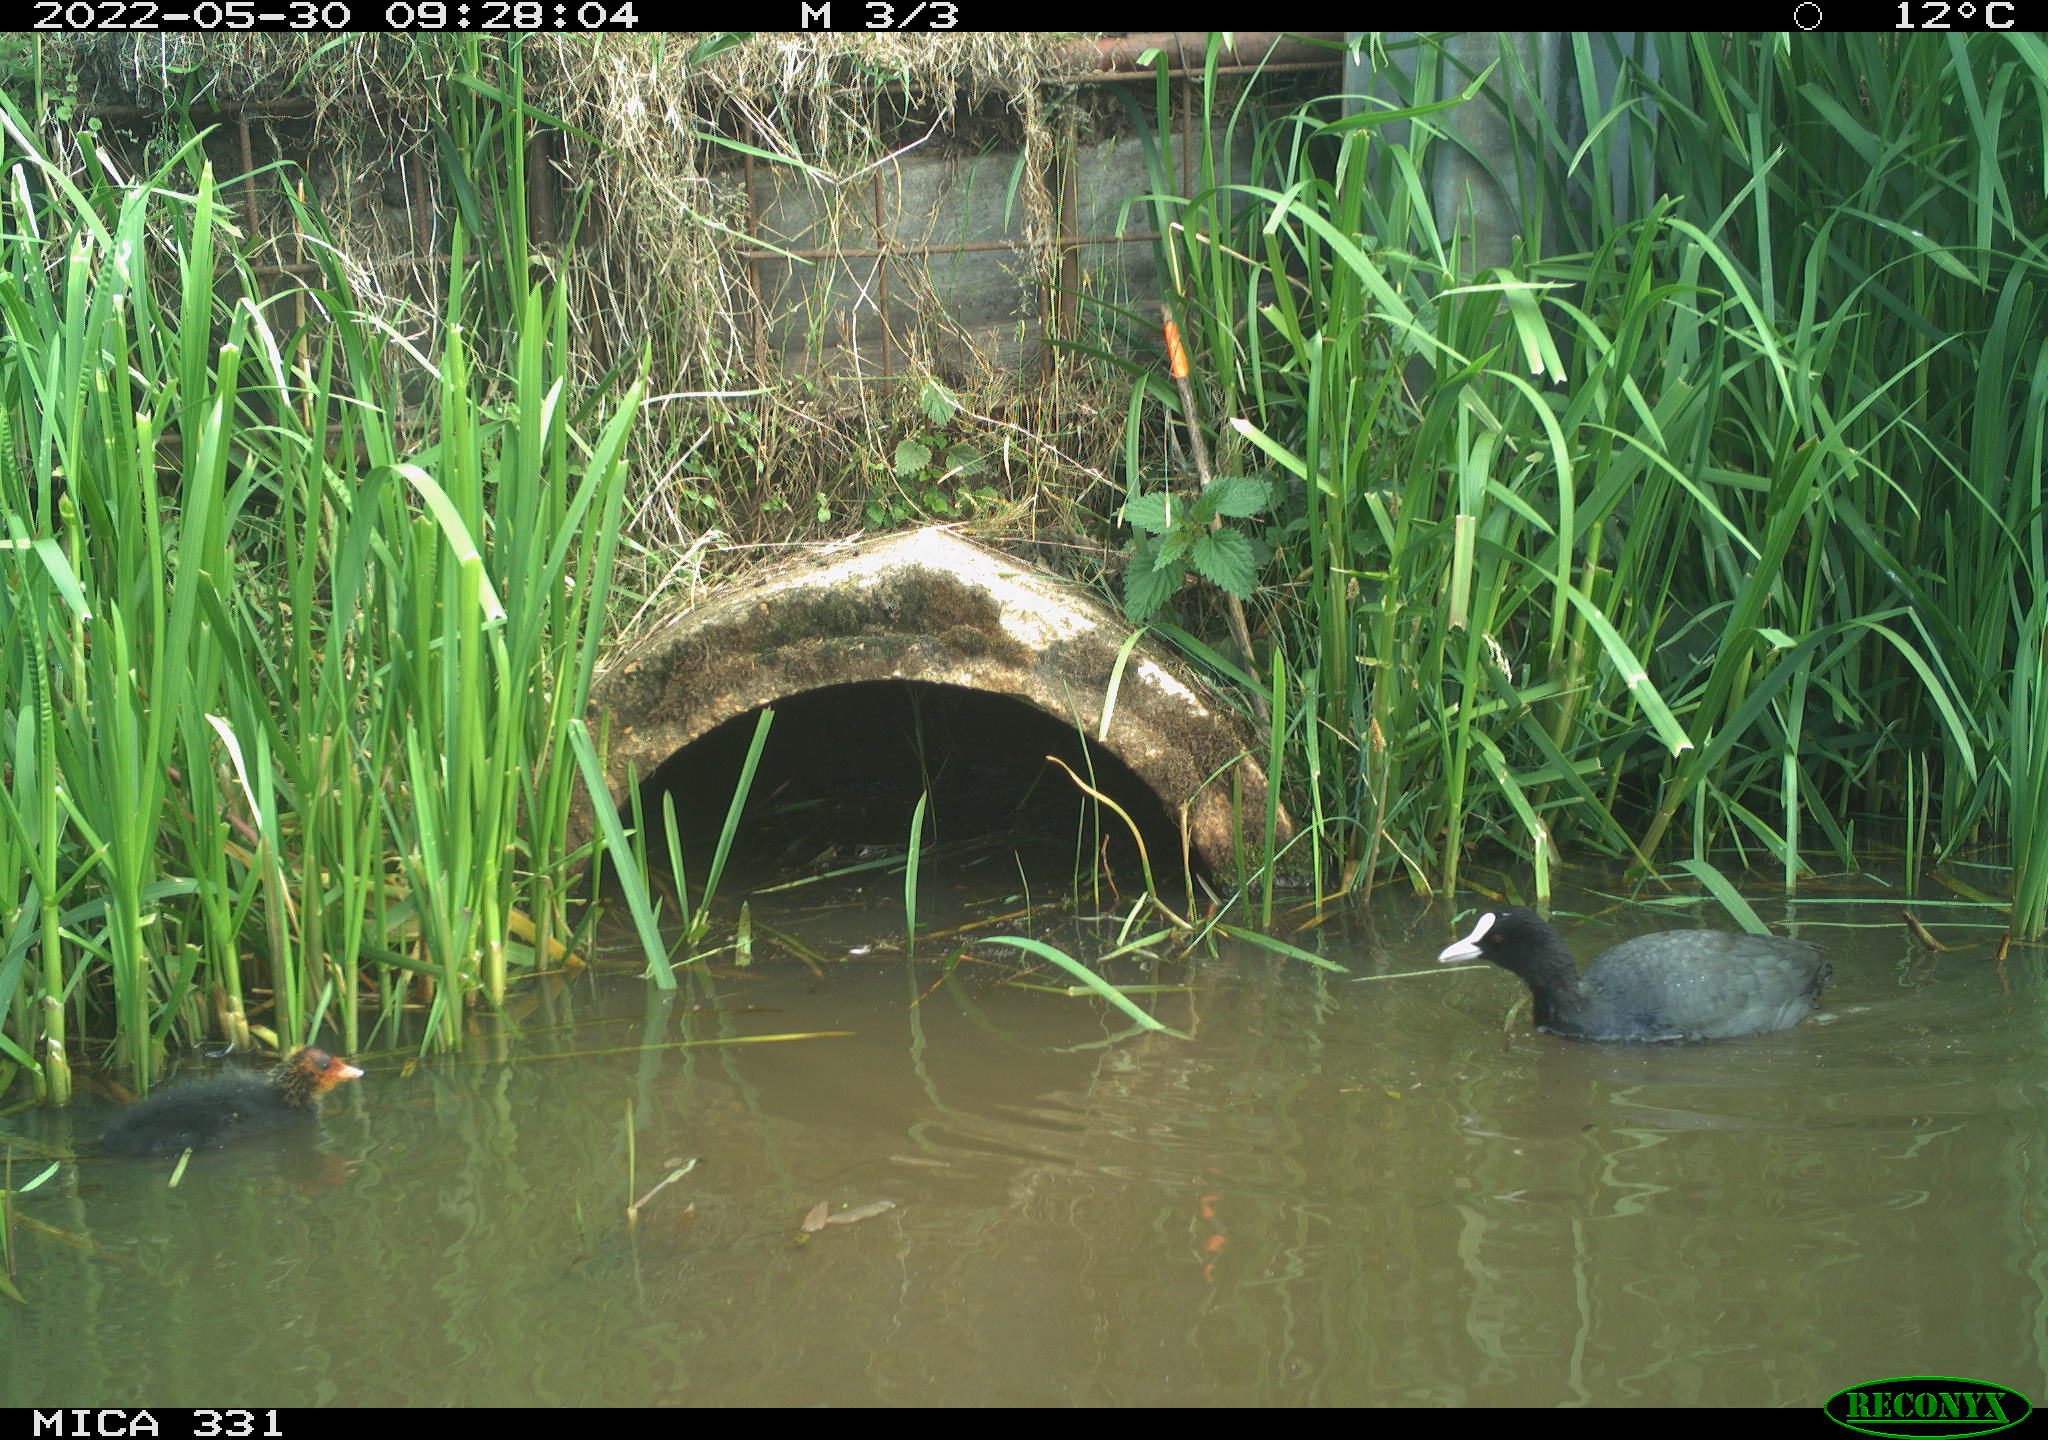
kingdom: Animalia
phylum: Chordata
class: Aves
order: Gruiformes
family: Rallidae
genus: Fulica
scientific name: Fulica atra
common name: Eurasian coot
